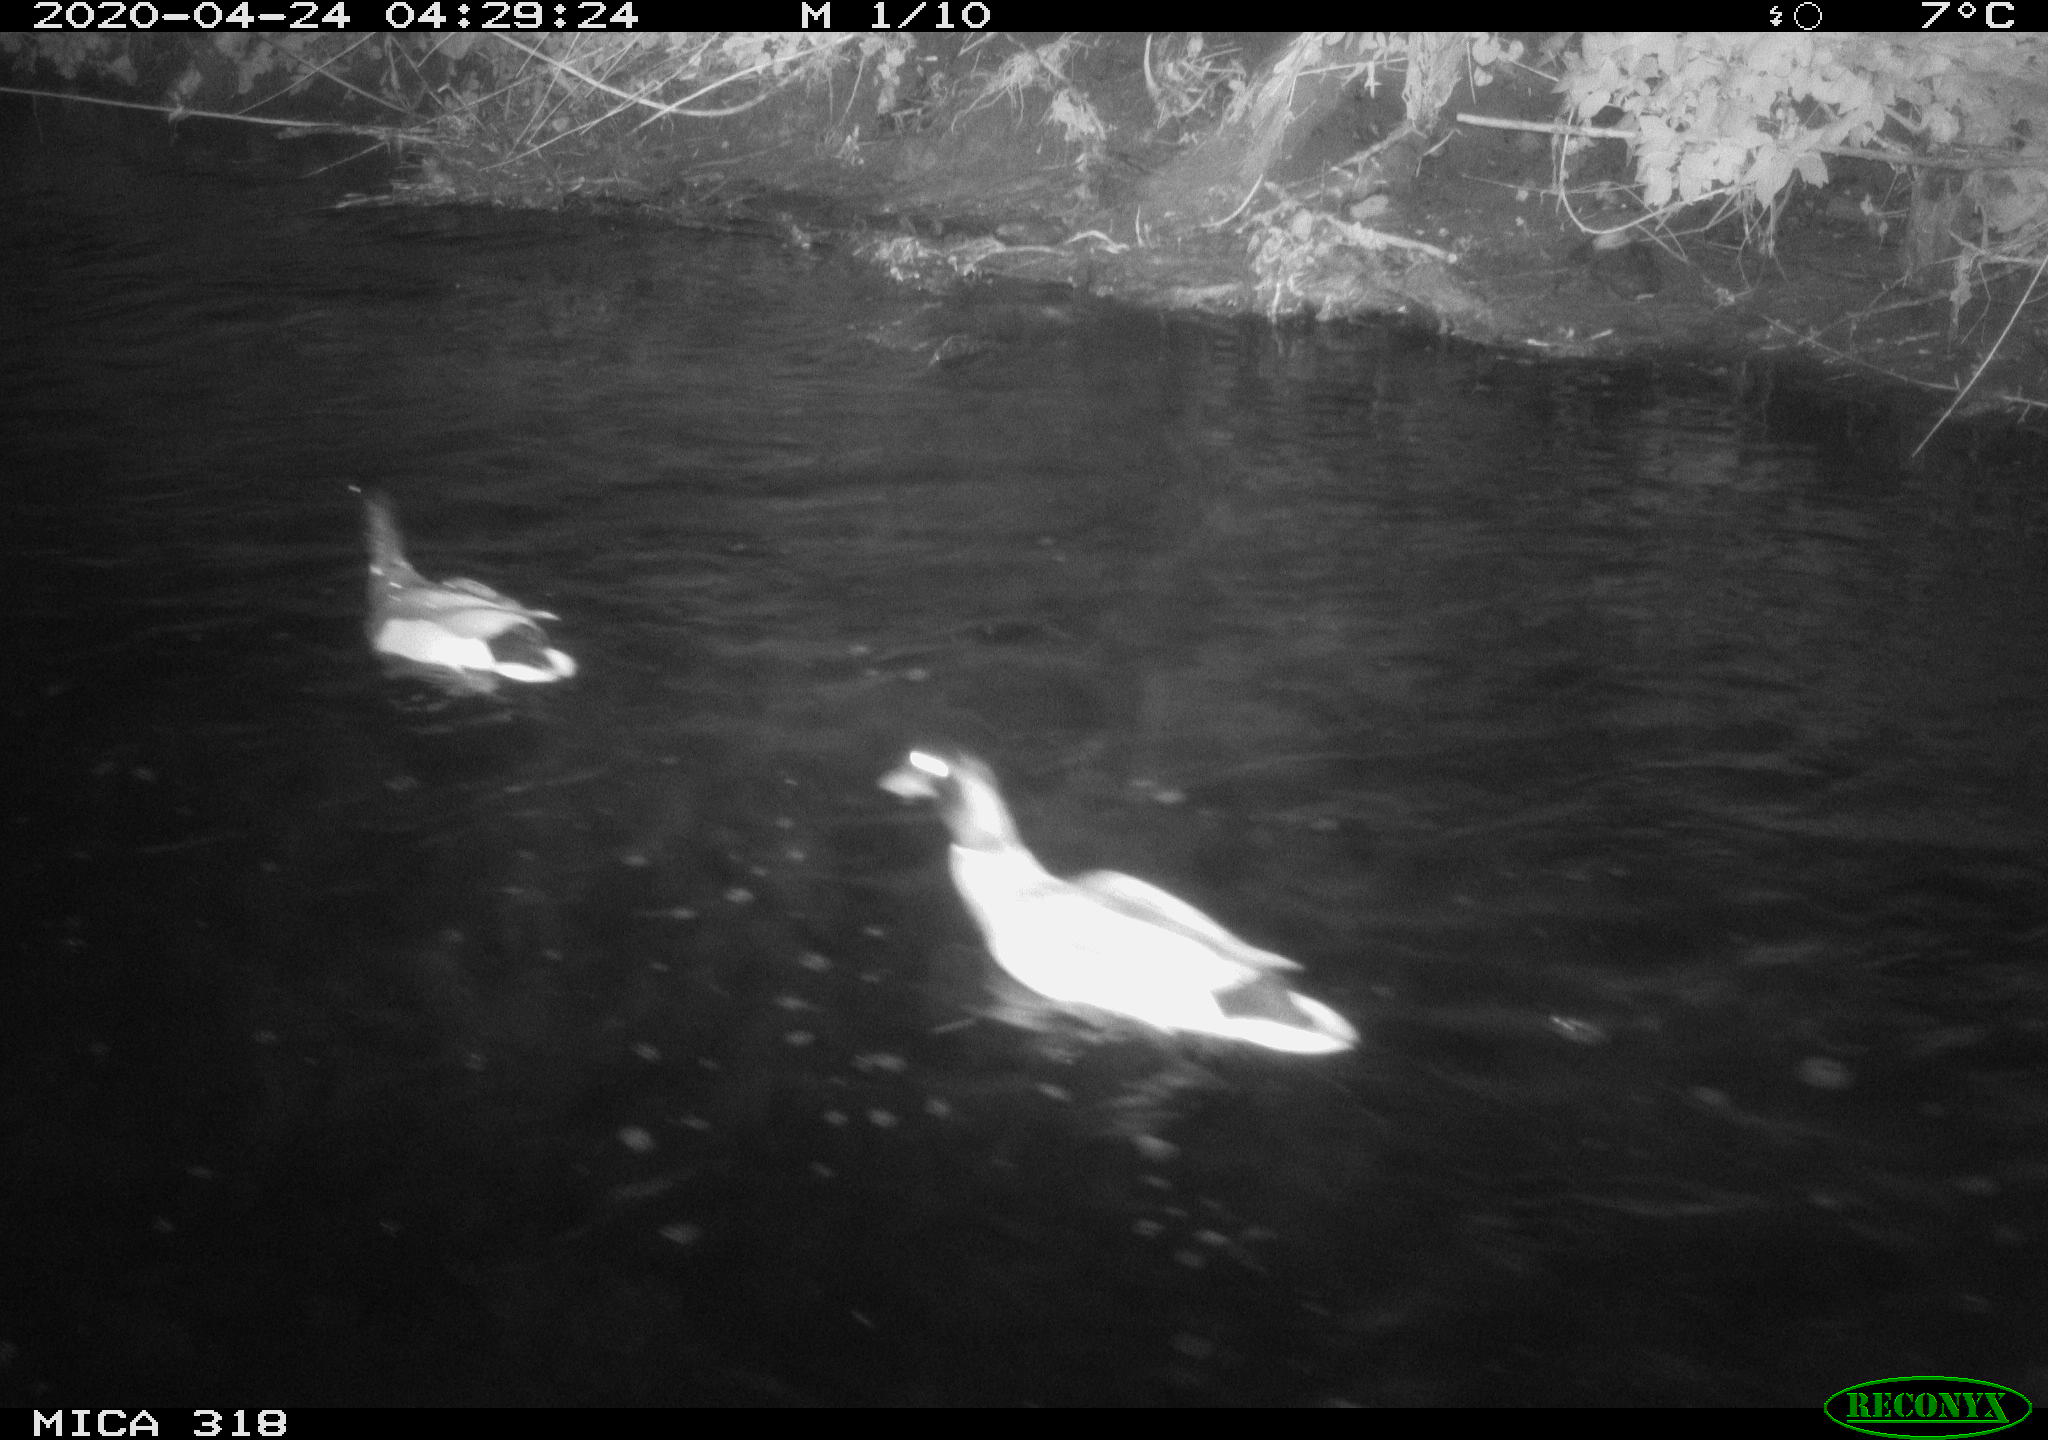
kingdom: Animalia
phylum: Chordata
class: Aves
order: Anseriformes
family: Anatidae
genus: Anas
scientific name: Anas platyrhynchos
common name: Mallard
